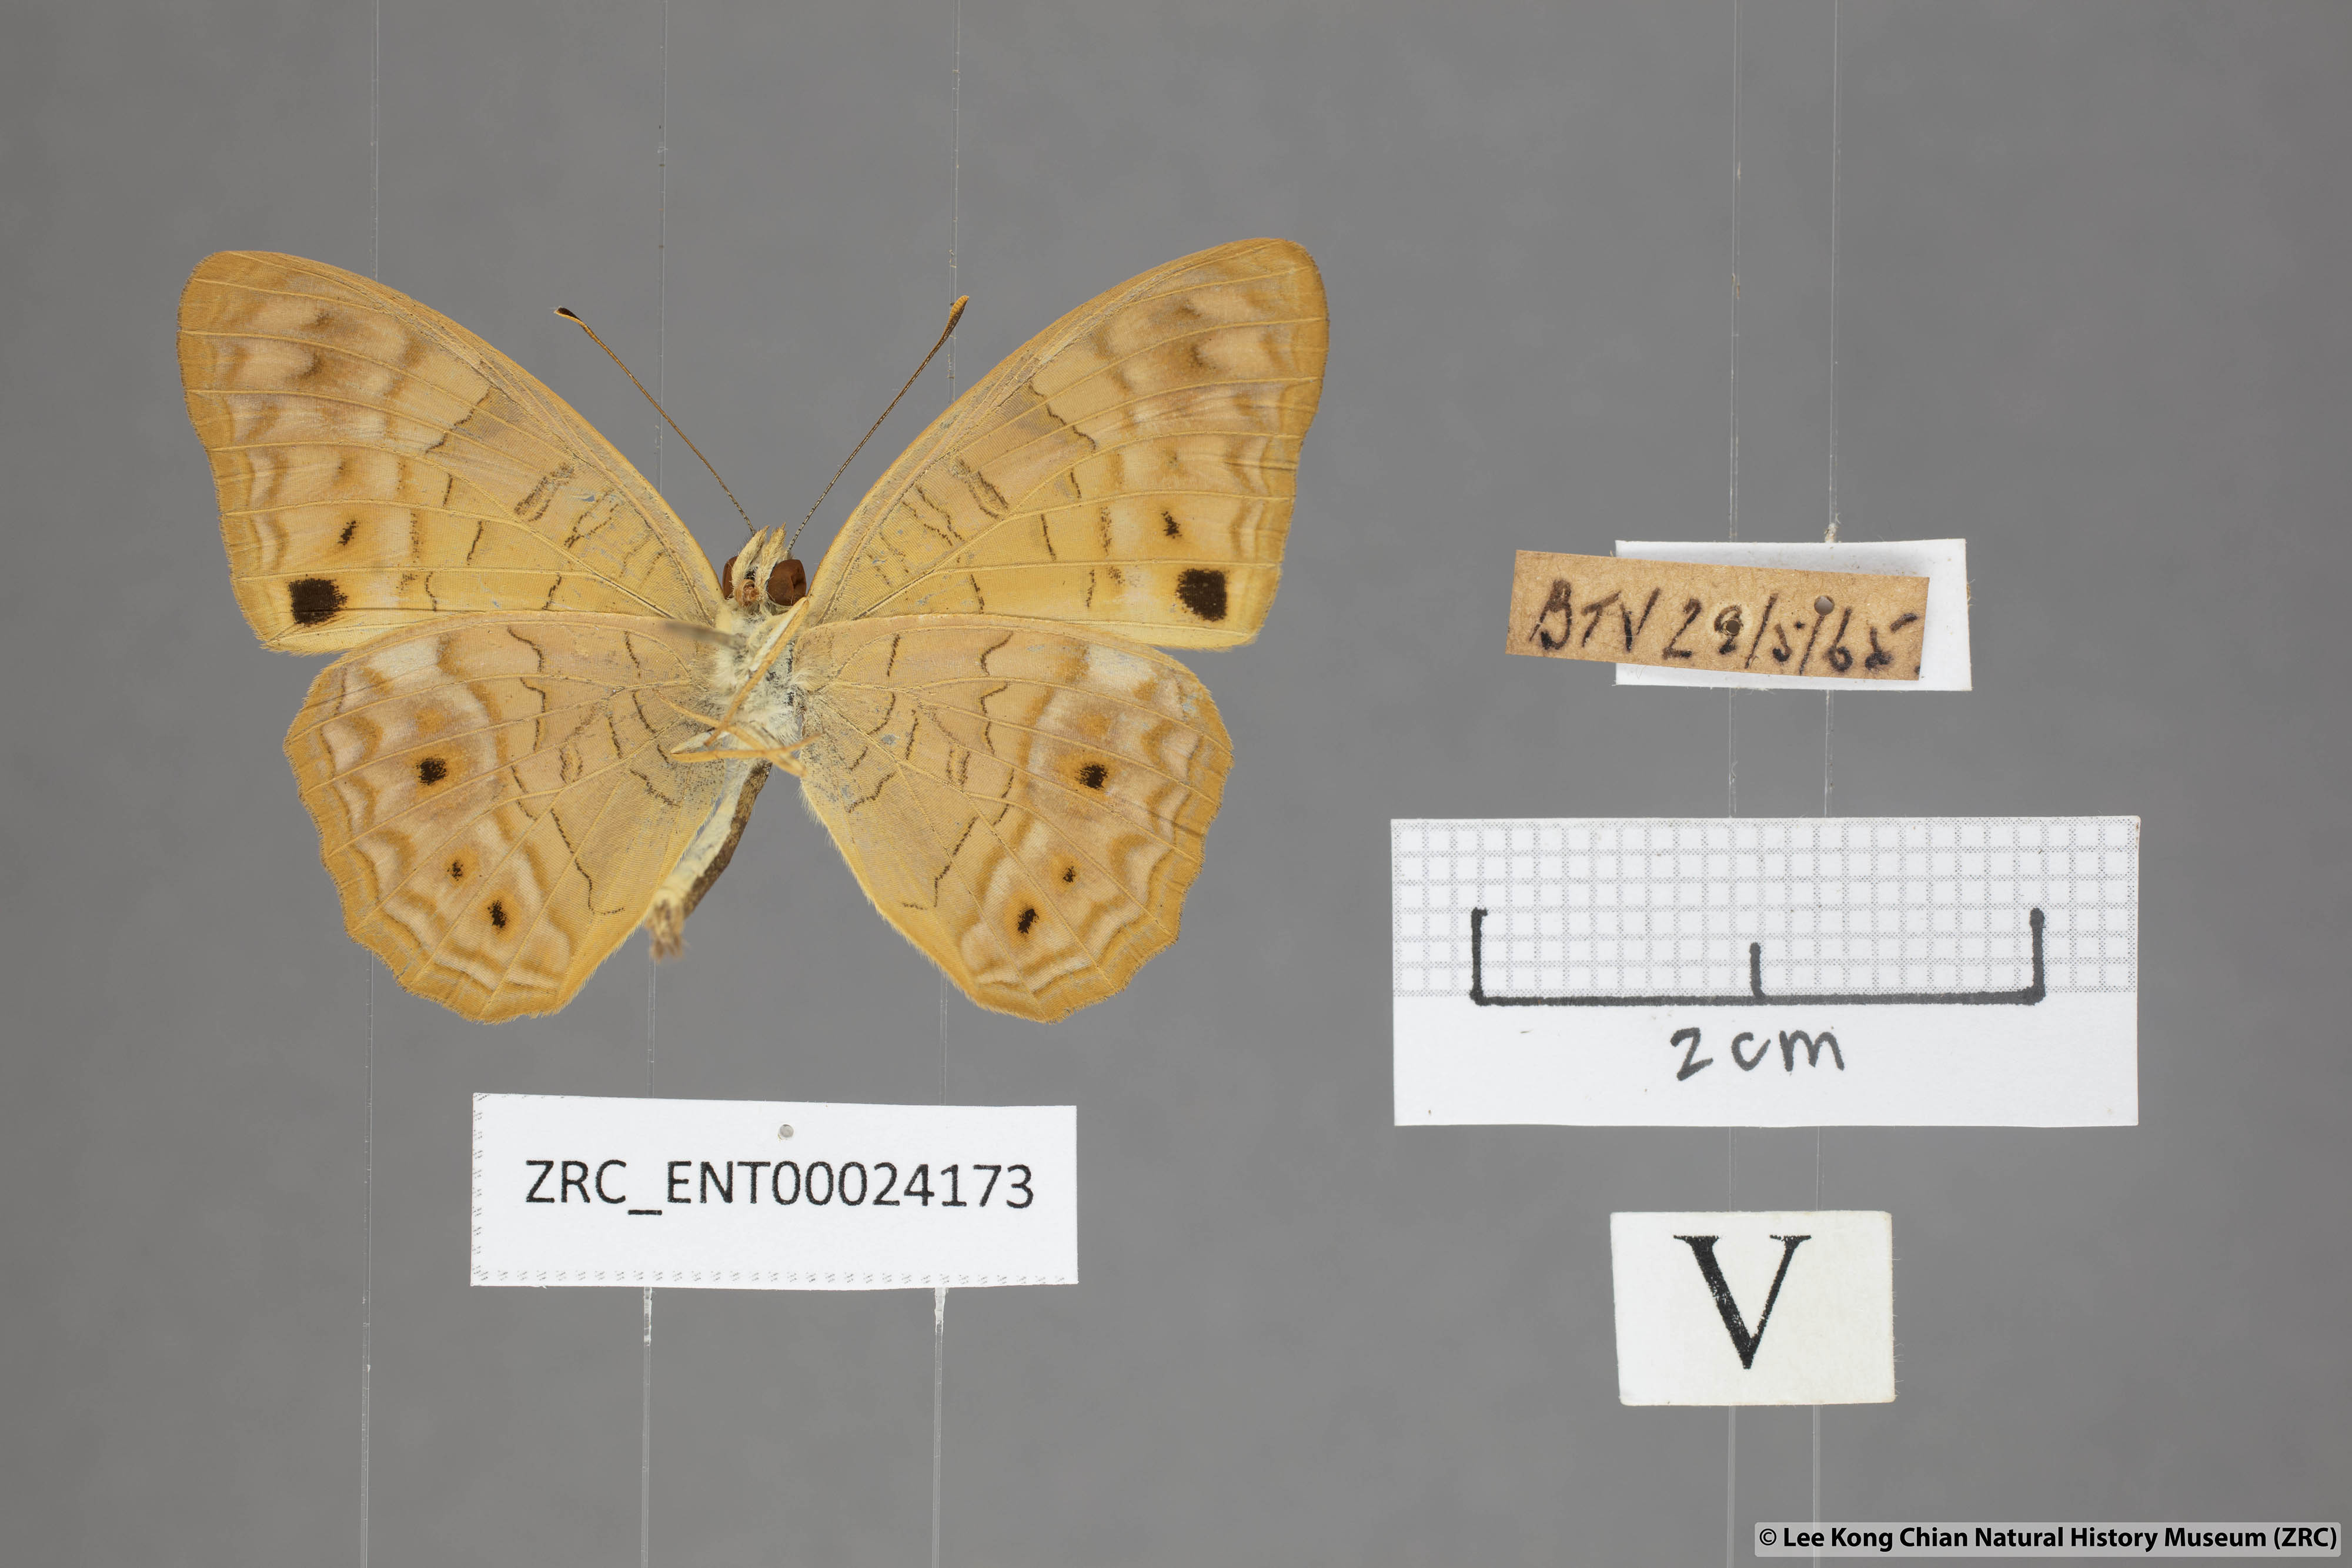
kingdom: Animalia
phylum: Arthropoda
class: Insecta
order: Lepidoptera
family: Nymphalidae
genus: Phalanta
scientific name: Phalanta alcippe
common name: Small leopard
